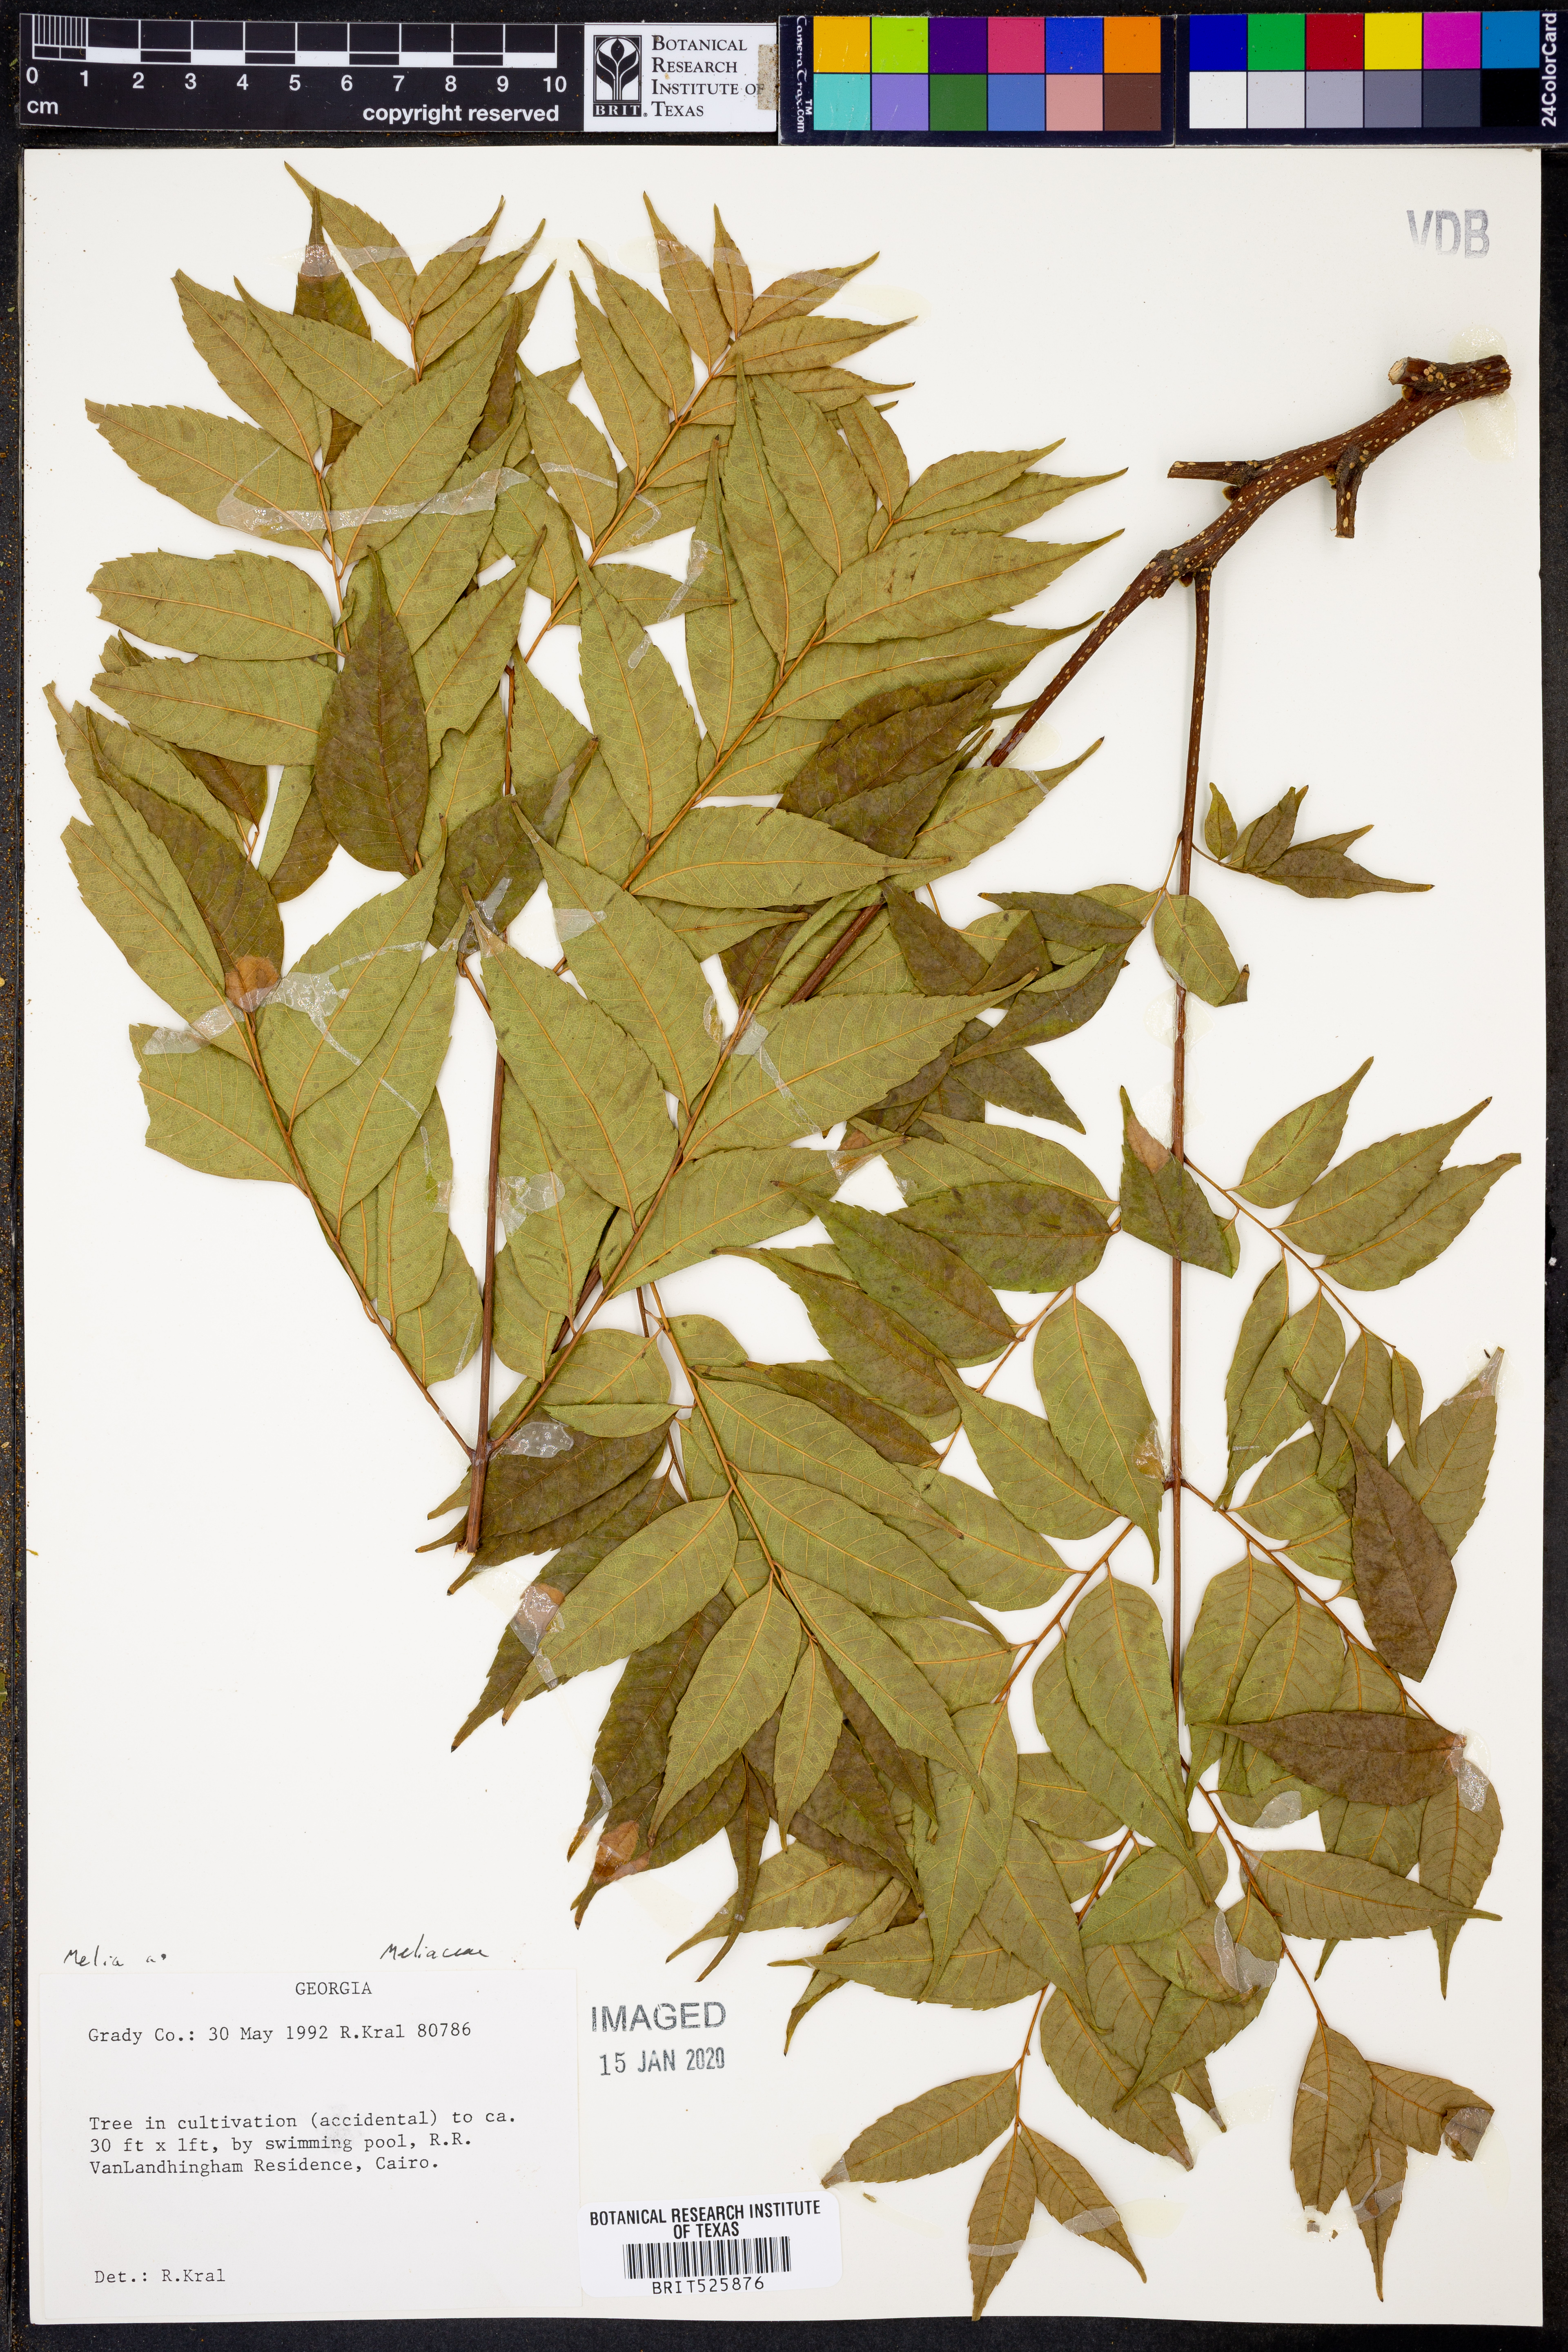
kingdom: Plantae
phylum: Tracheophyta
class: Magnoliopsida
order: Sapindales
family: Meliaceae
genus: Melia
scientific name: Melia
